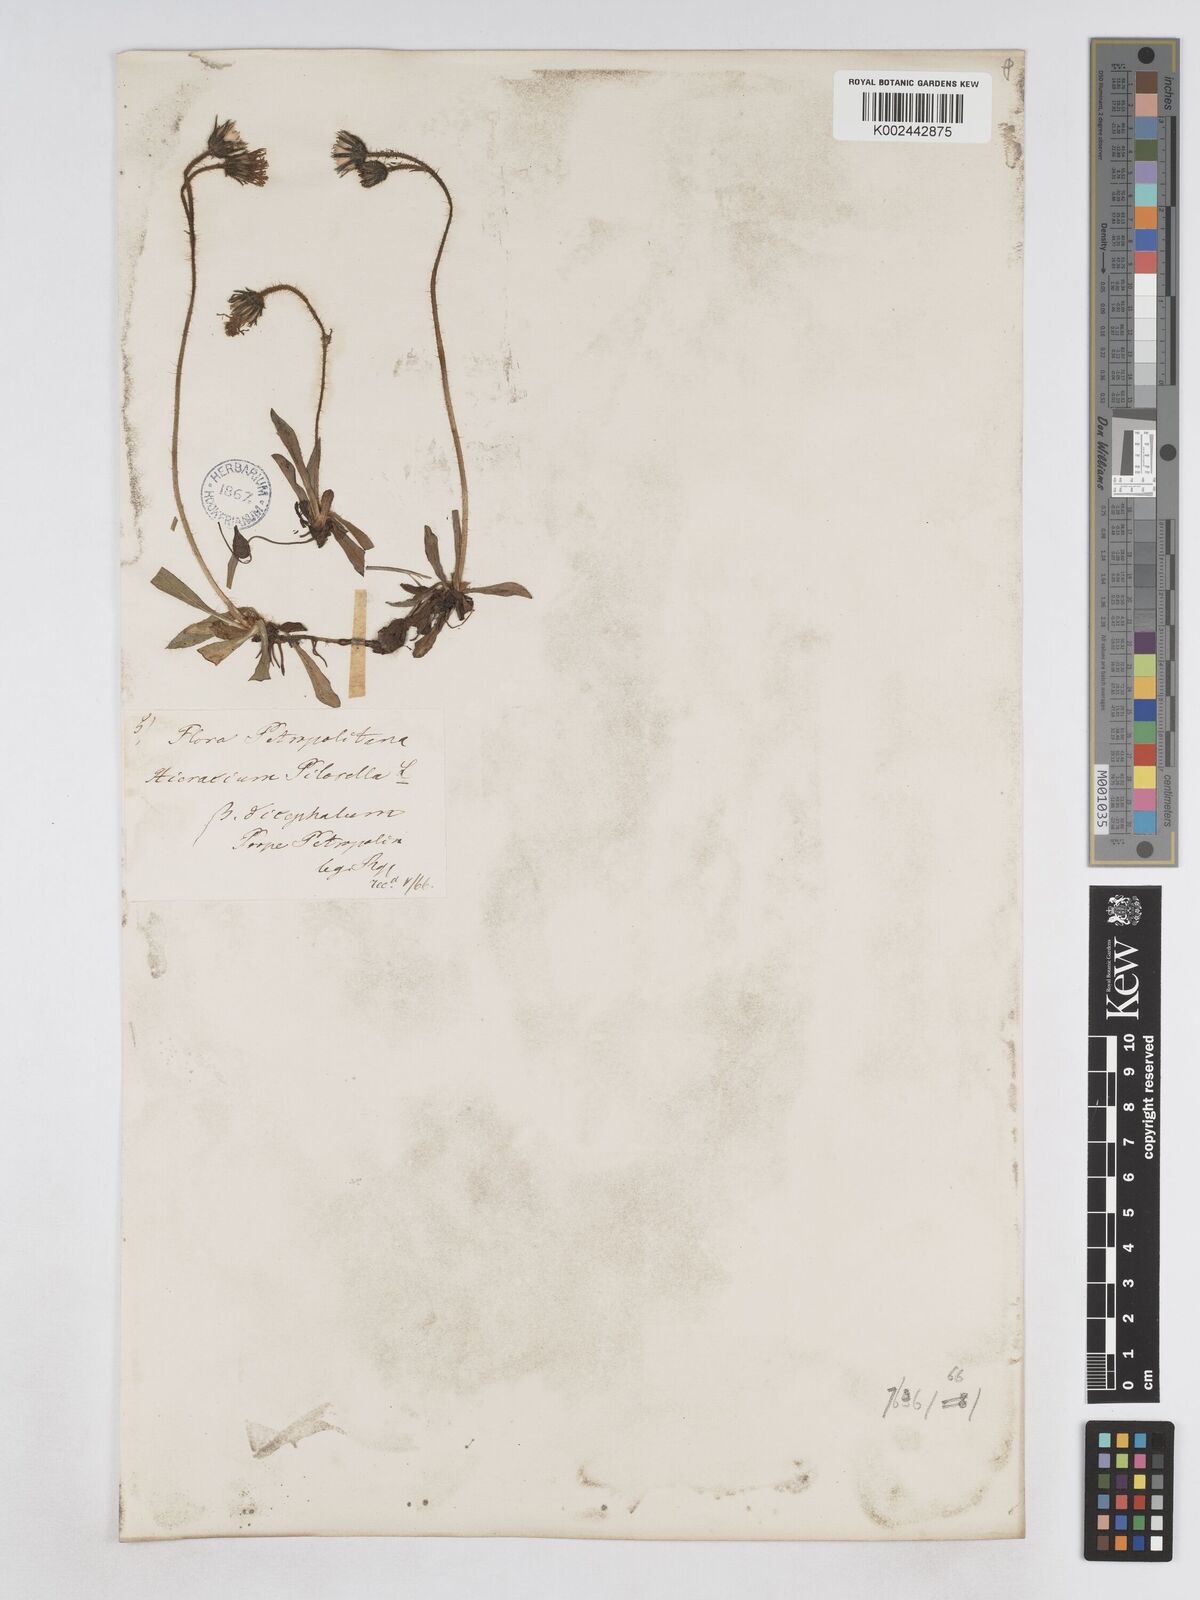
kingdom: Plantae
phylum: Tracheophyta
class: Magnoliopsida
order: Asterales
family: Asteraceae
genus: Pilosella
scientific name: Pilosella bifurca
